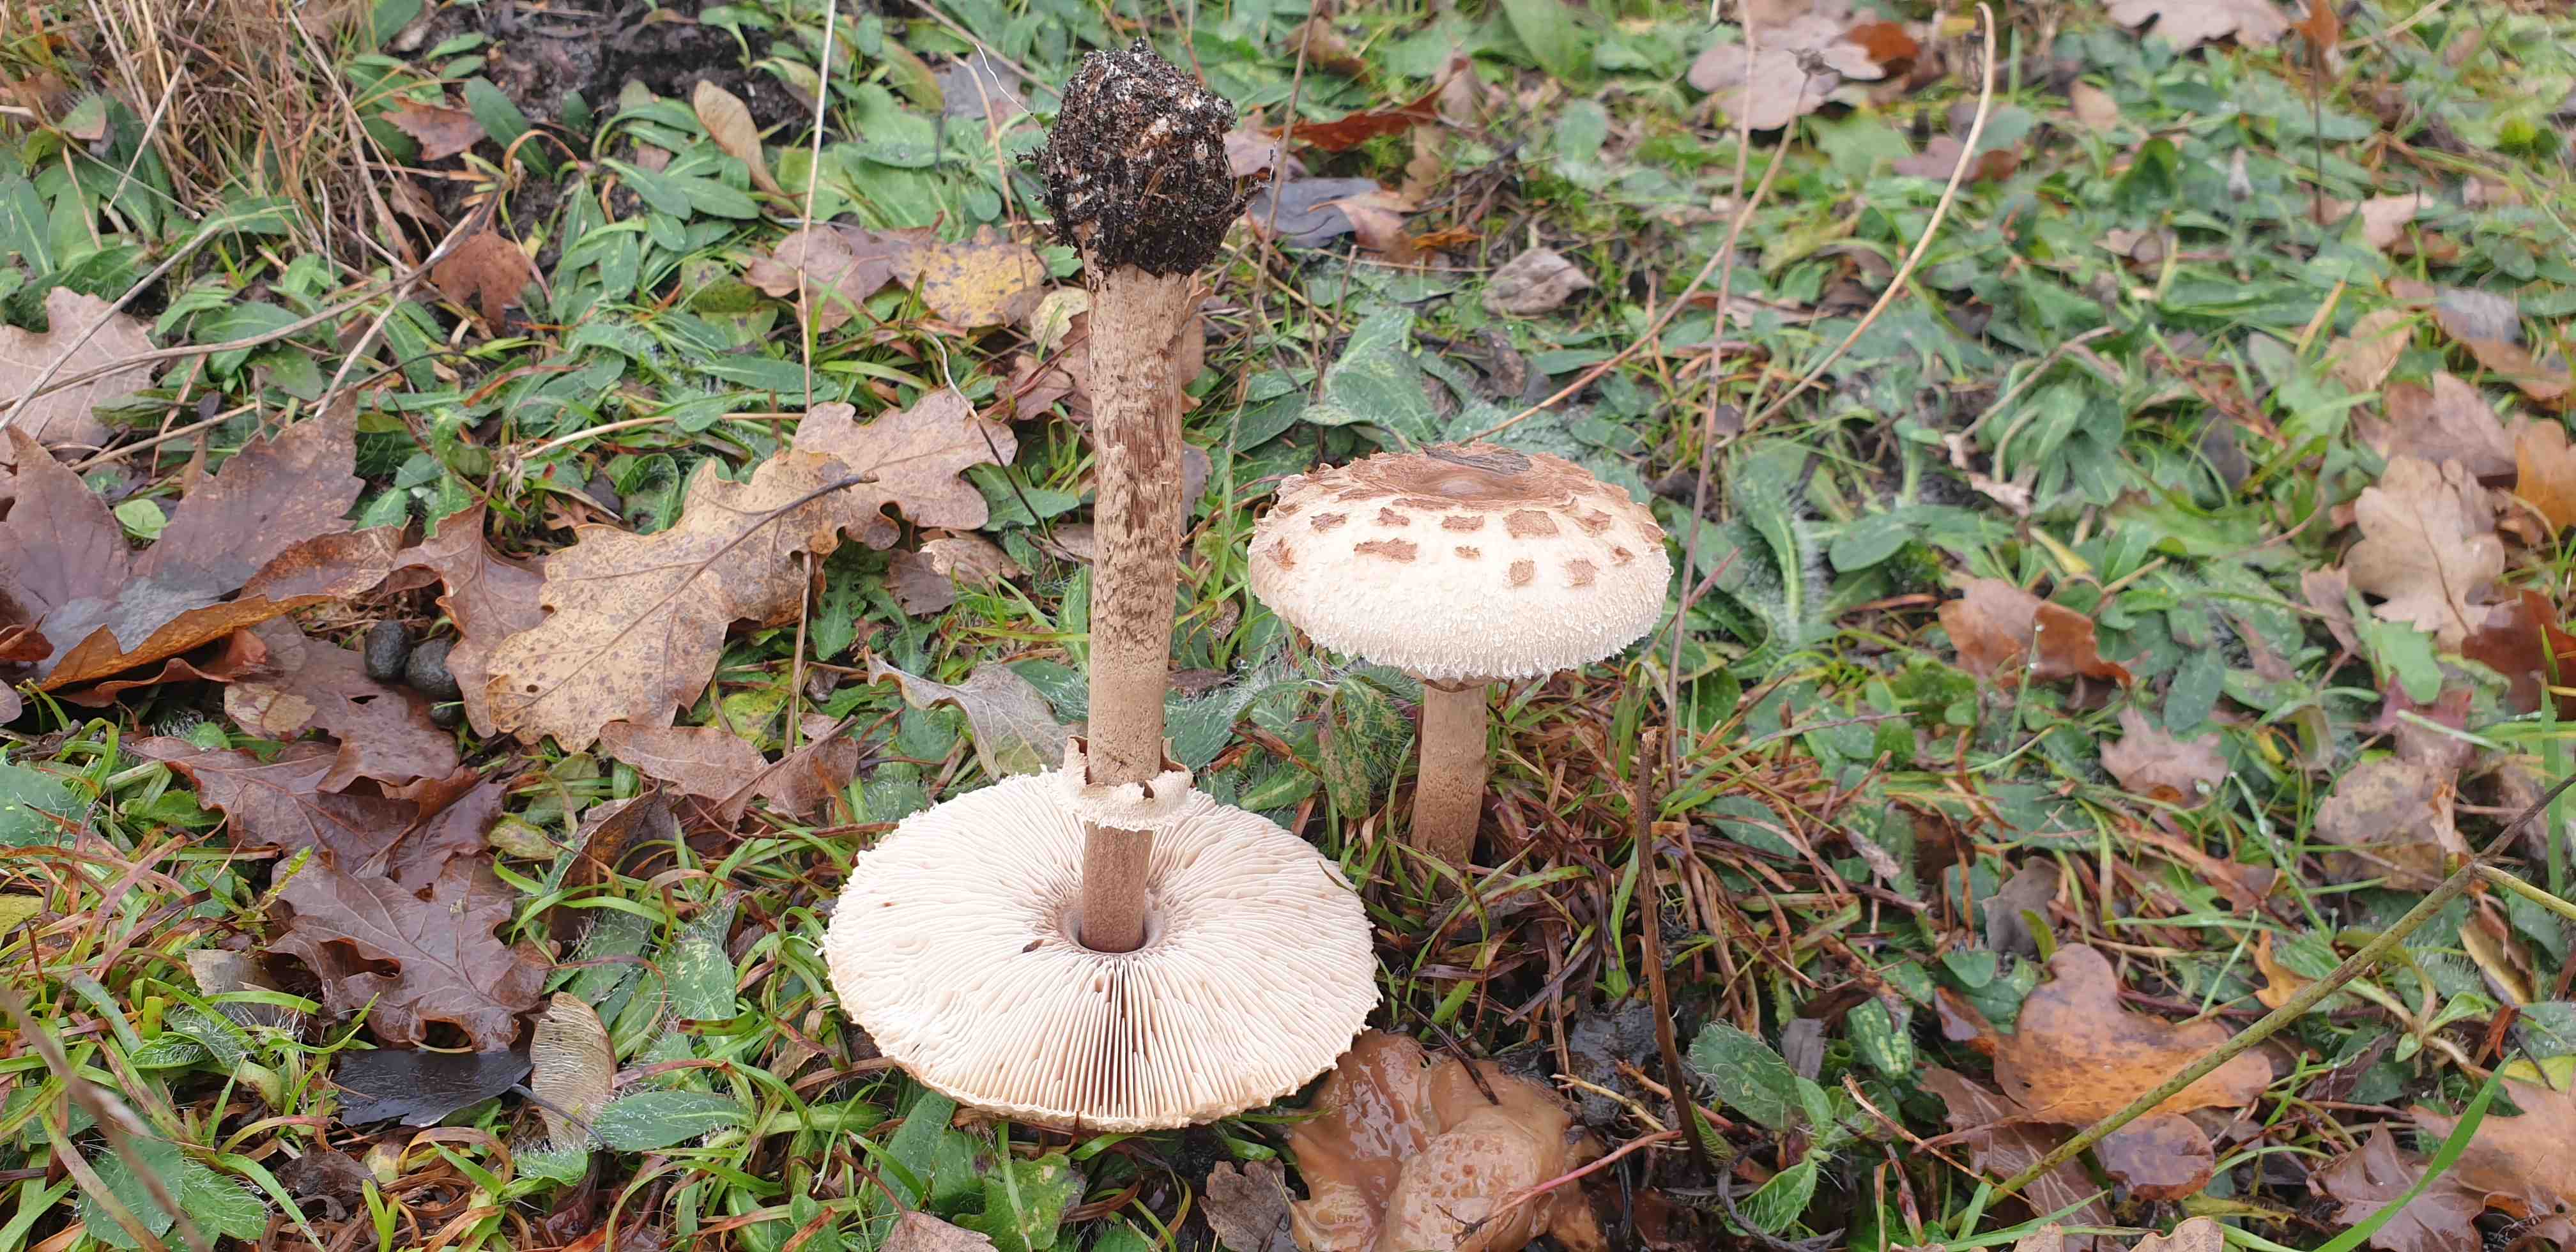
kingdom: Fungi
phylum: Basidiomycota
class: Agaricomycetes
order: Agaricales
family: Agaricaceae
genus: Macrolepiota
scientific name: Macrolepiota procera
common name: stor kæmpeparasolhat
